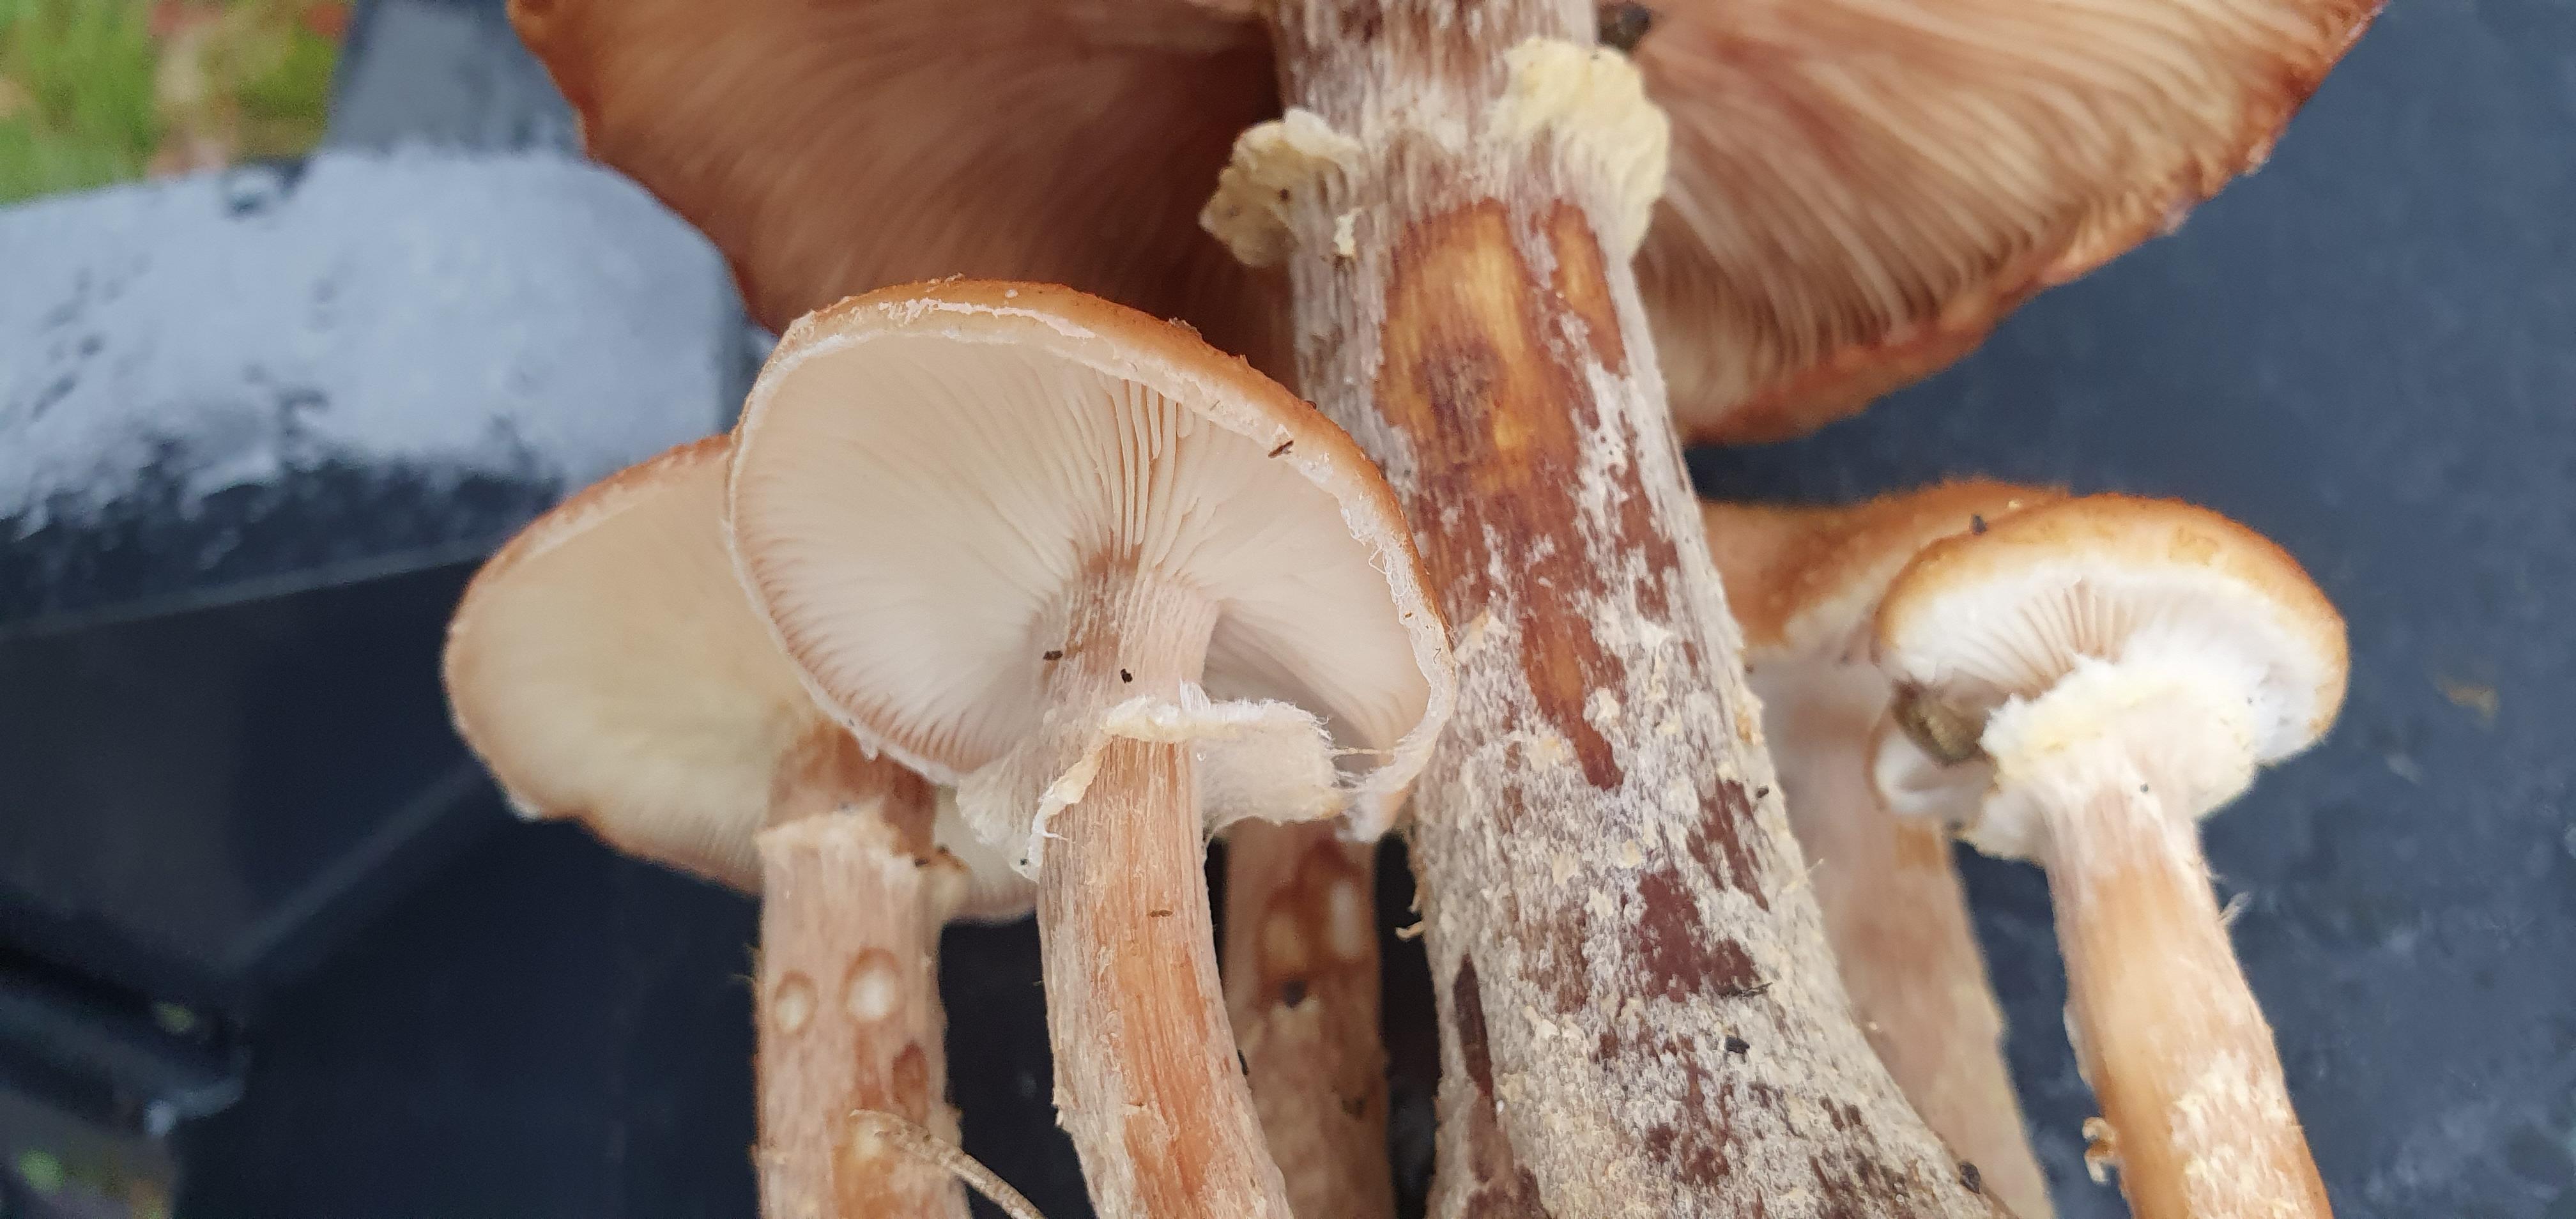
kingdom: Fungi
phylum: Basidiomycota
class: Agaricomycetes
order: Agaricales
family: Physalacriaceae
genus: Armillaria
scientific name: Armillaria lutea
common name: køllestokket honningsvamp
